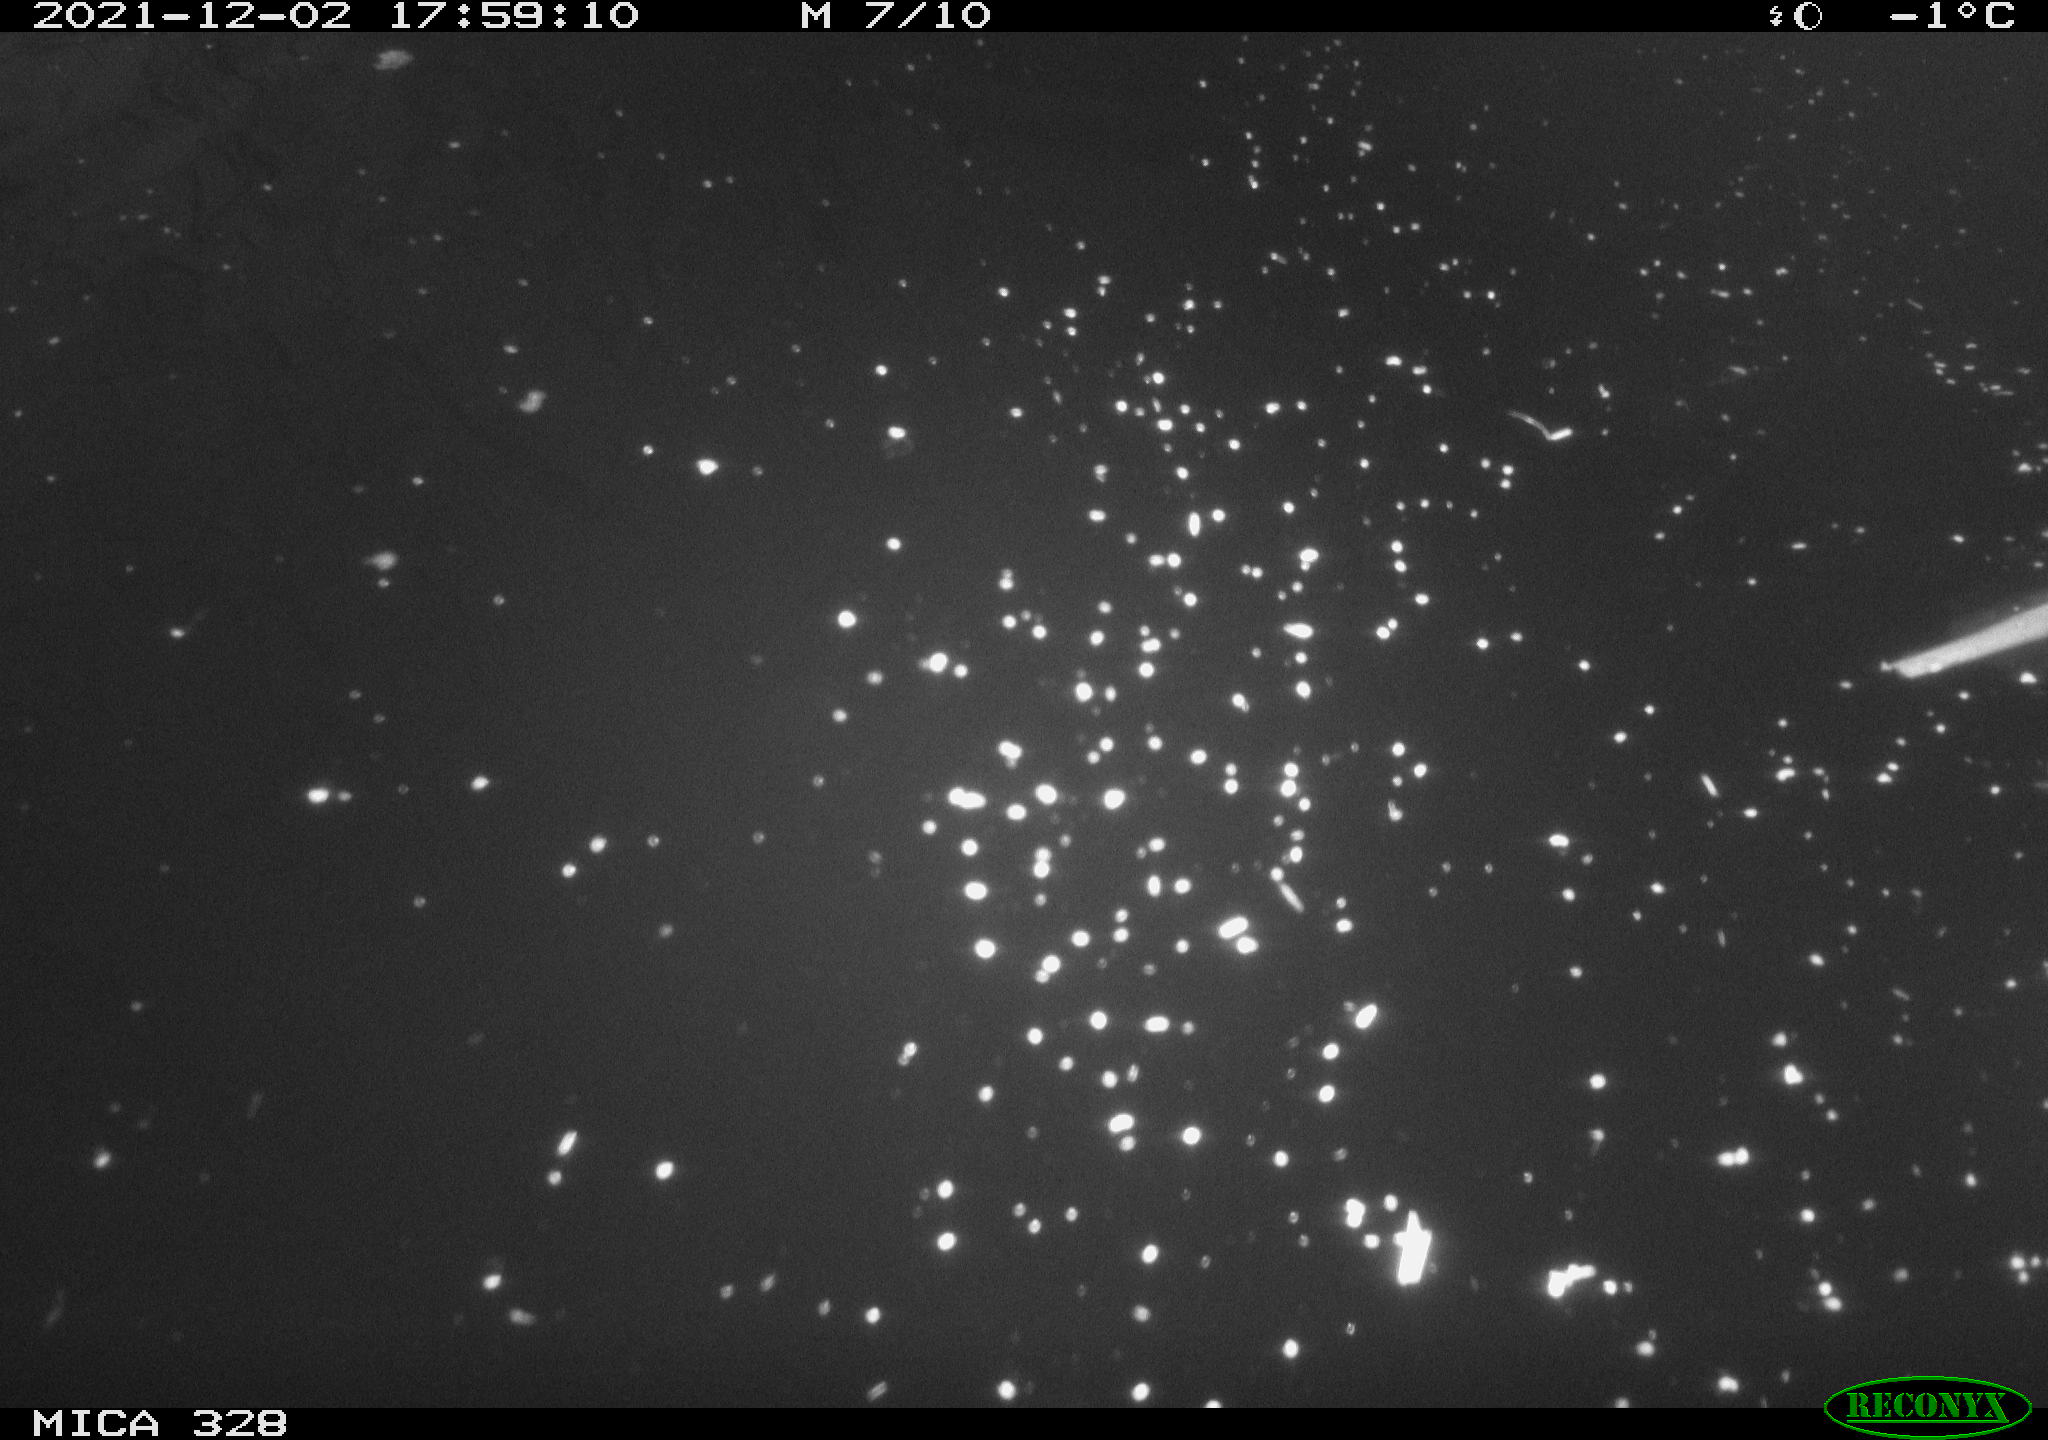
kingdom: Animalia
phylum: Chordata
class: Aves
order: Gruiformes
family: Rallidae
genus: Gallinula
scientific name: Gallinula chloropus
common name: Common moorhen
